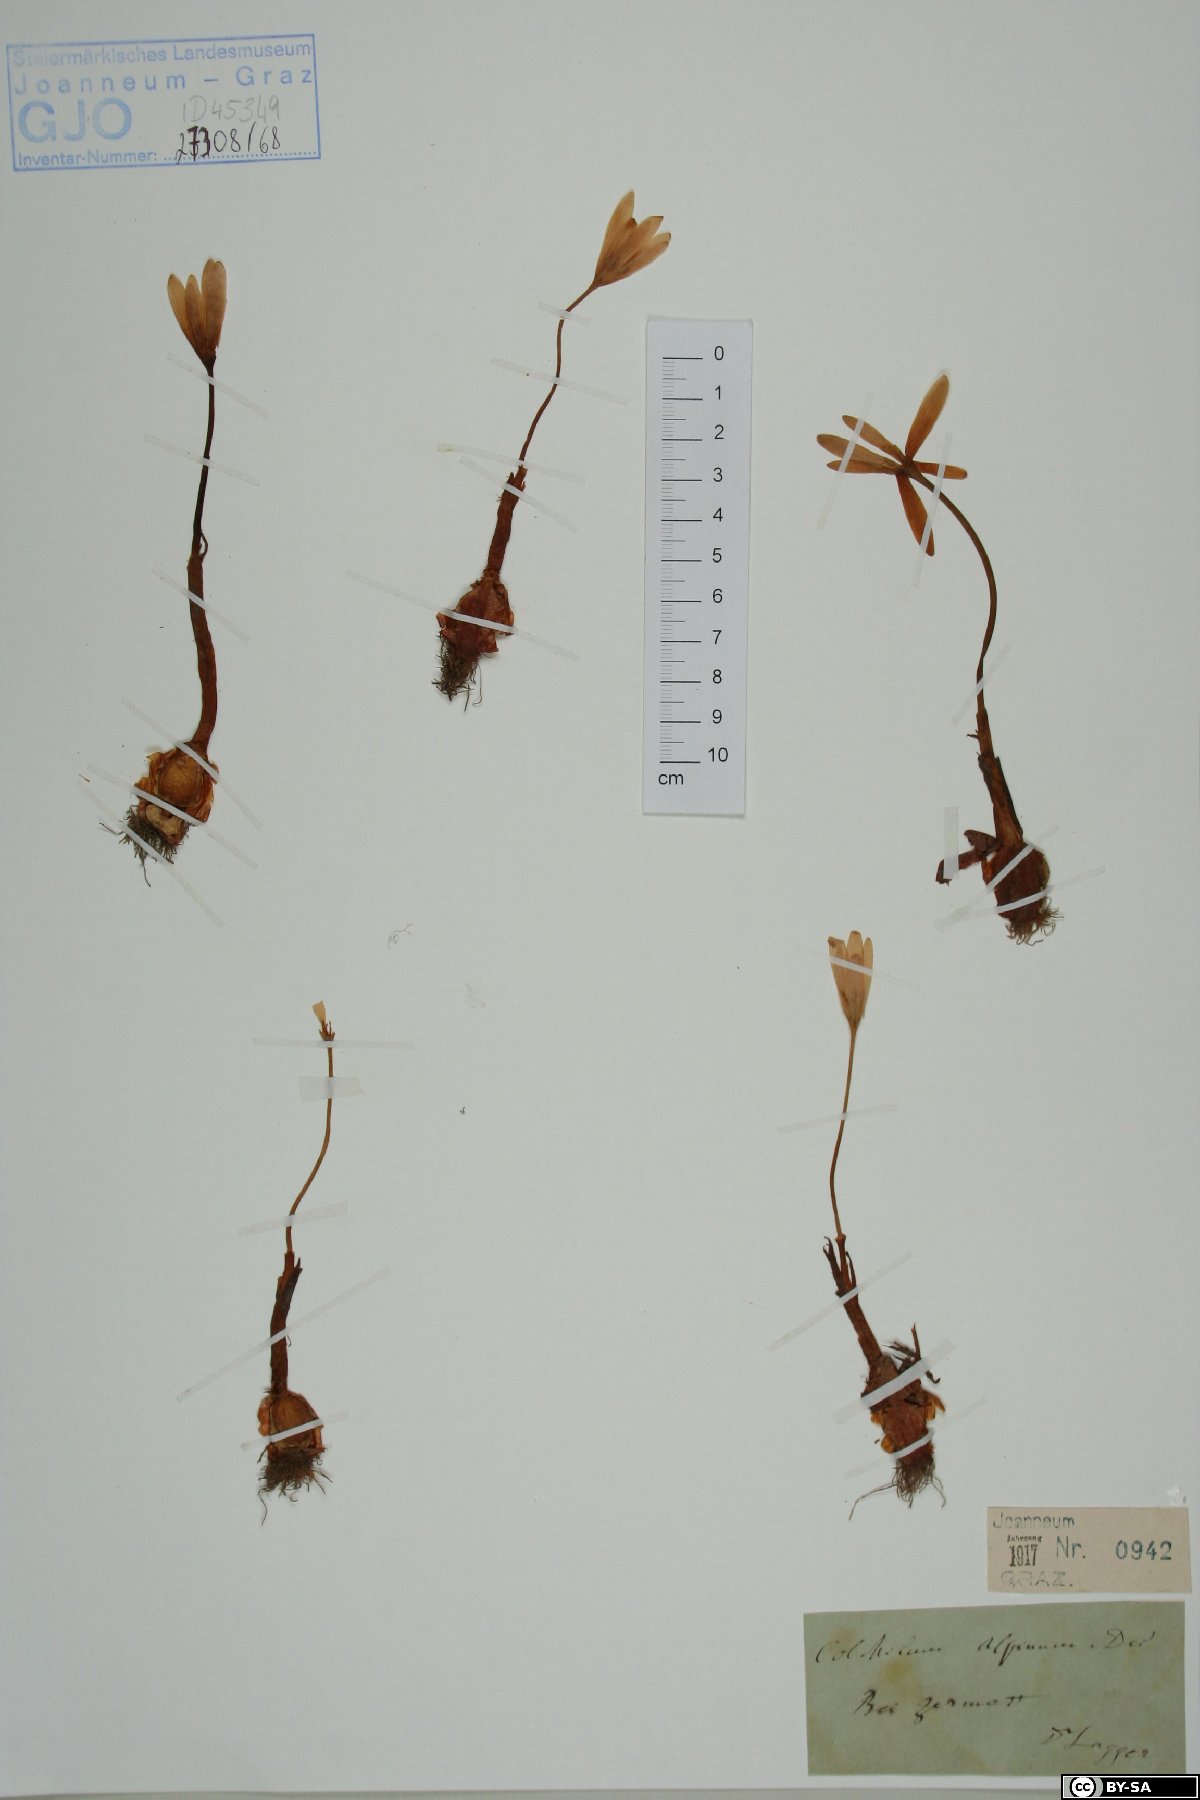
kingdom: Plantae
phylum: Tracheophyta
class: Liliopsida
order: Liliales
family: Colchicaceae
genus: Colchicum
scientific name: Colchicum alpinum
